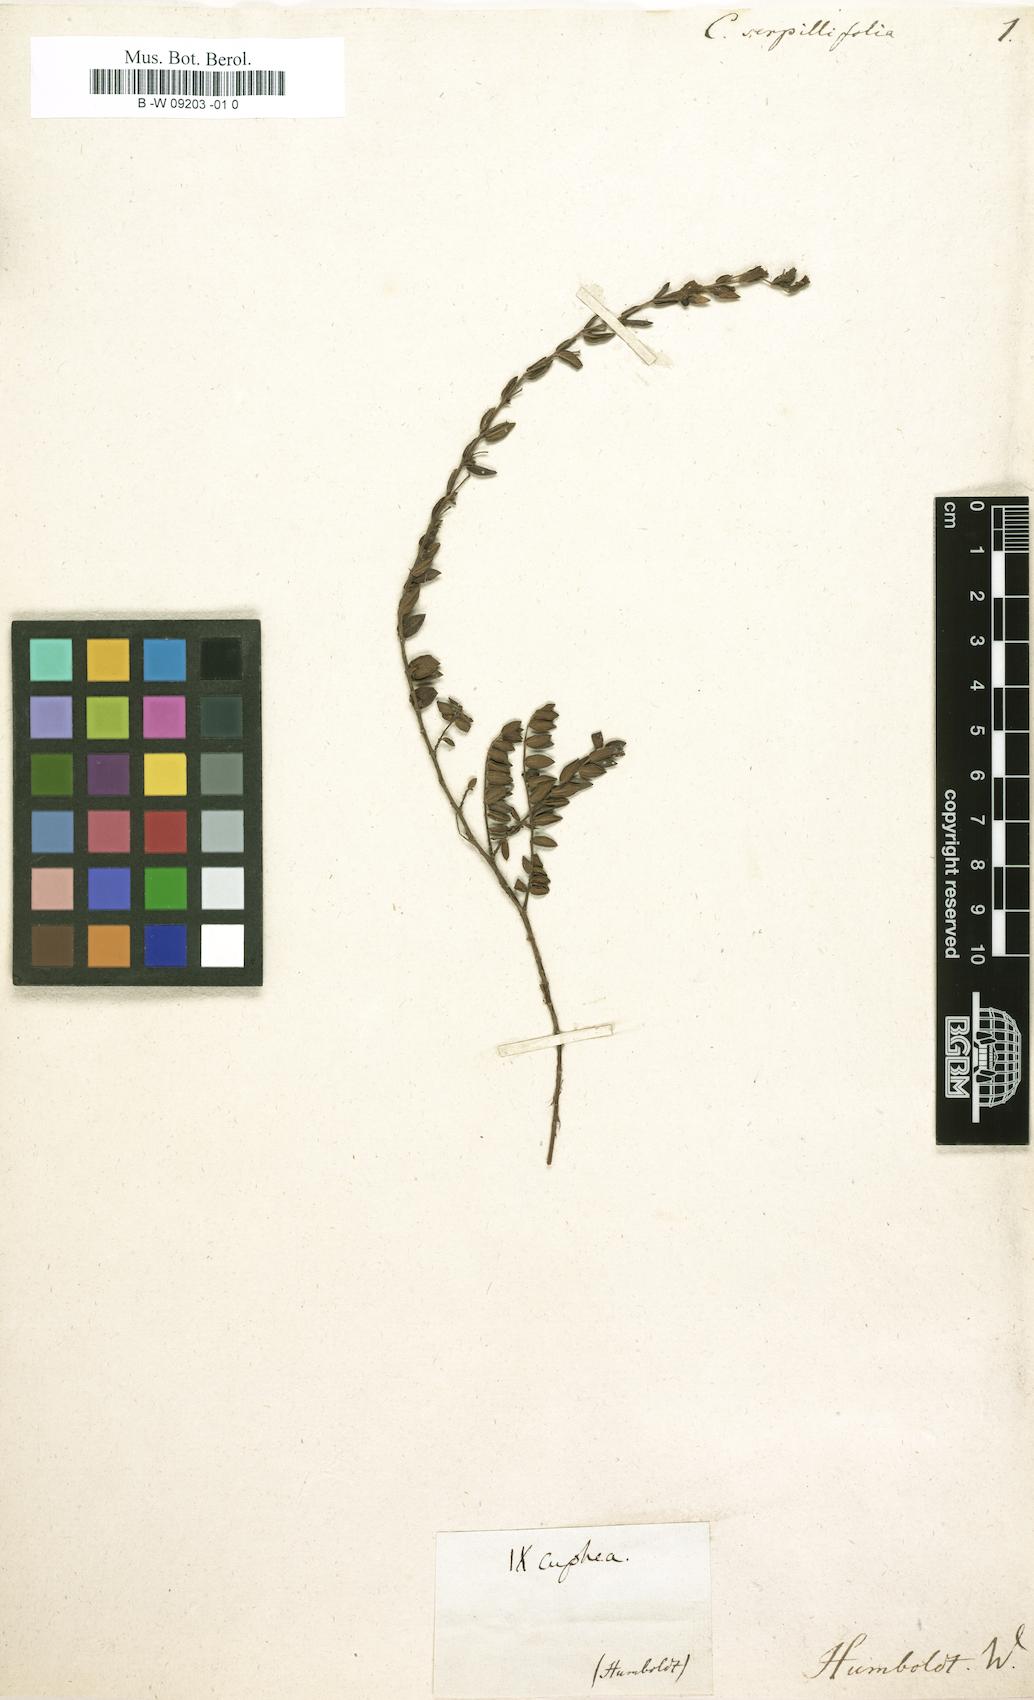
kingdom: Plantae
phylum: Tracheophyta
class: Magnoliopsida
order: Myrtales
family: Lythraceae
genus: Cuphea
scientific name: Cuphea
